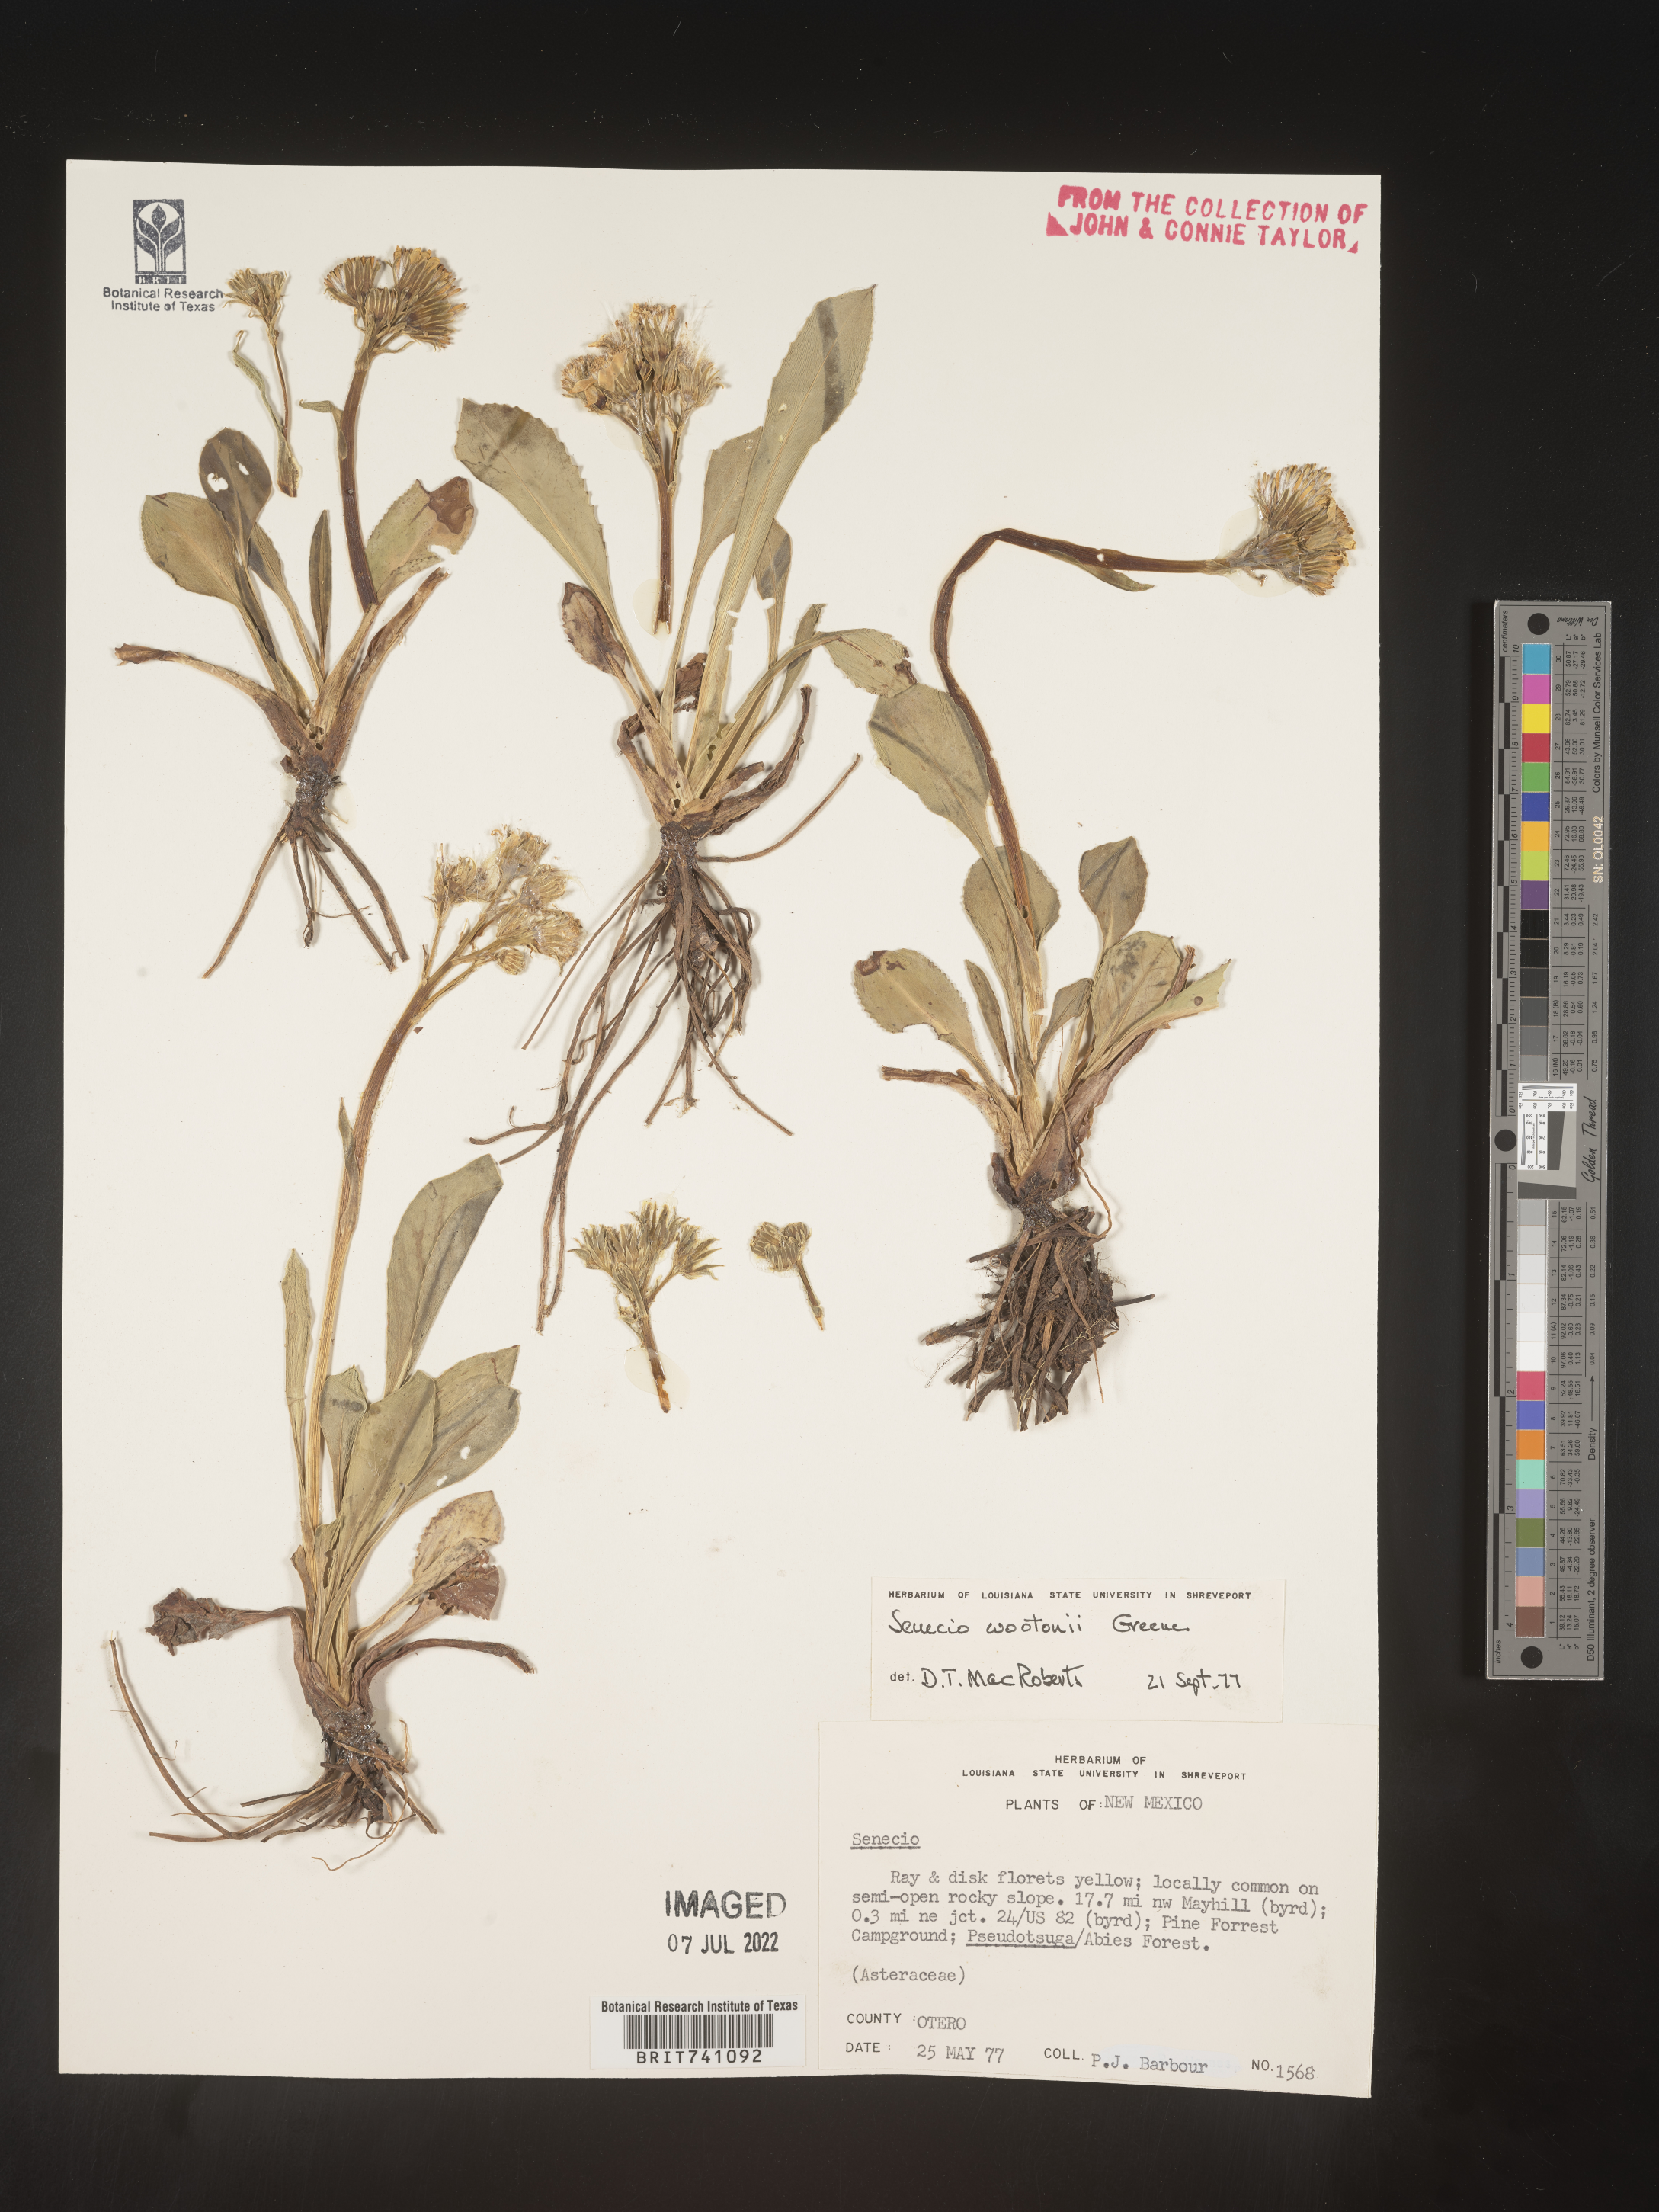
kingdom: Plantae
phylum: Tracheophyta
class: Magnoliopsida
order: Asterales
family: Asteraceae
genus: Senecio
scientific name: Senecio wootonii
